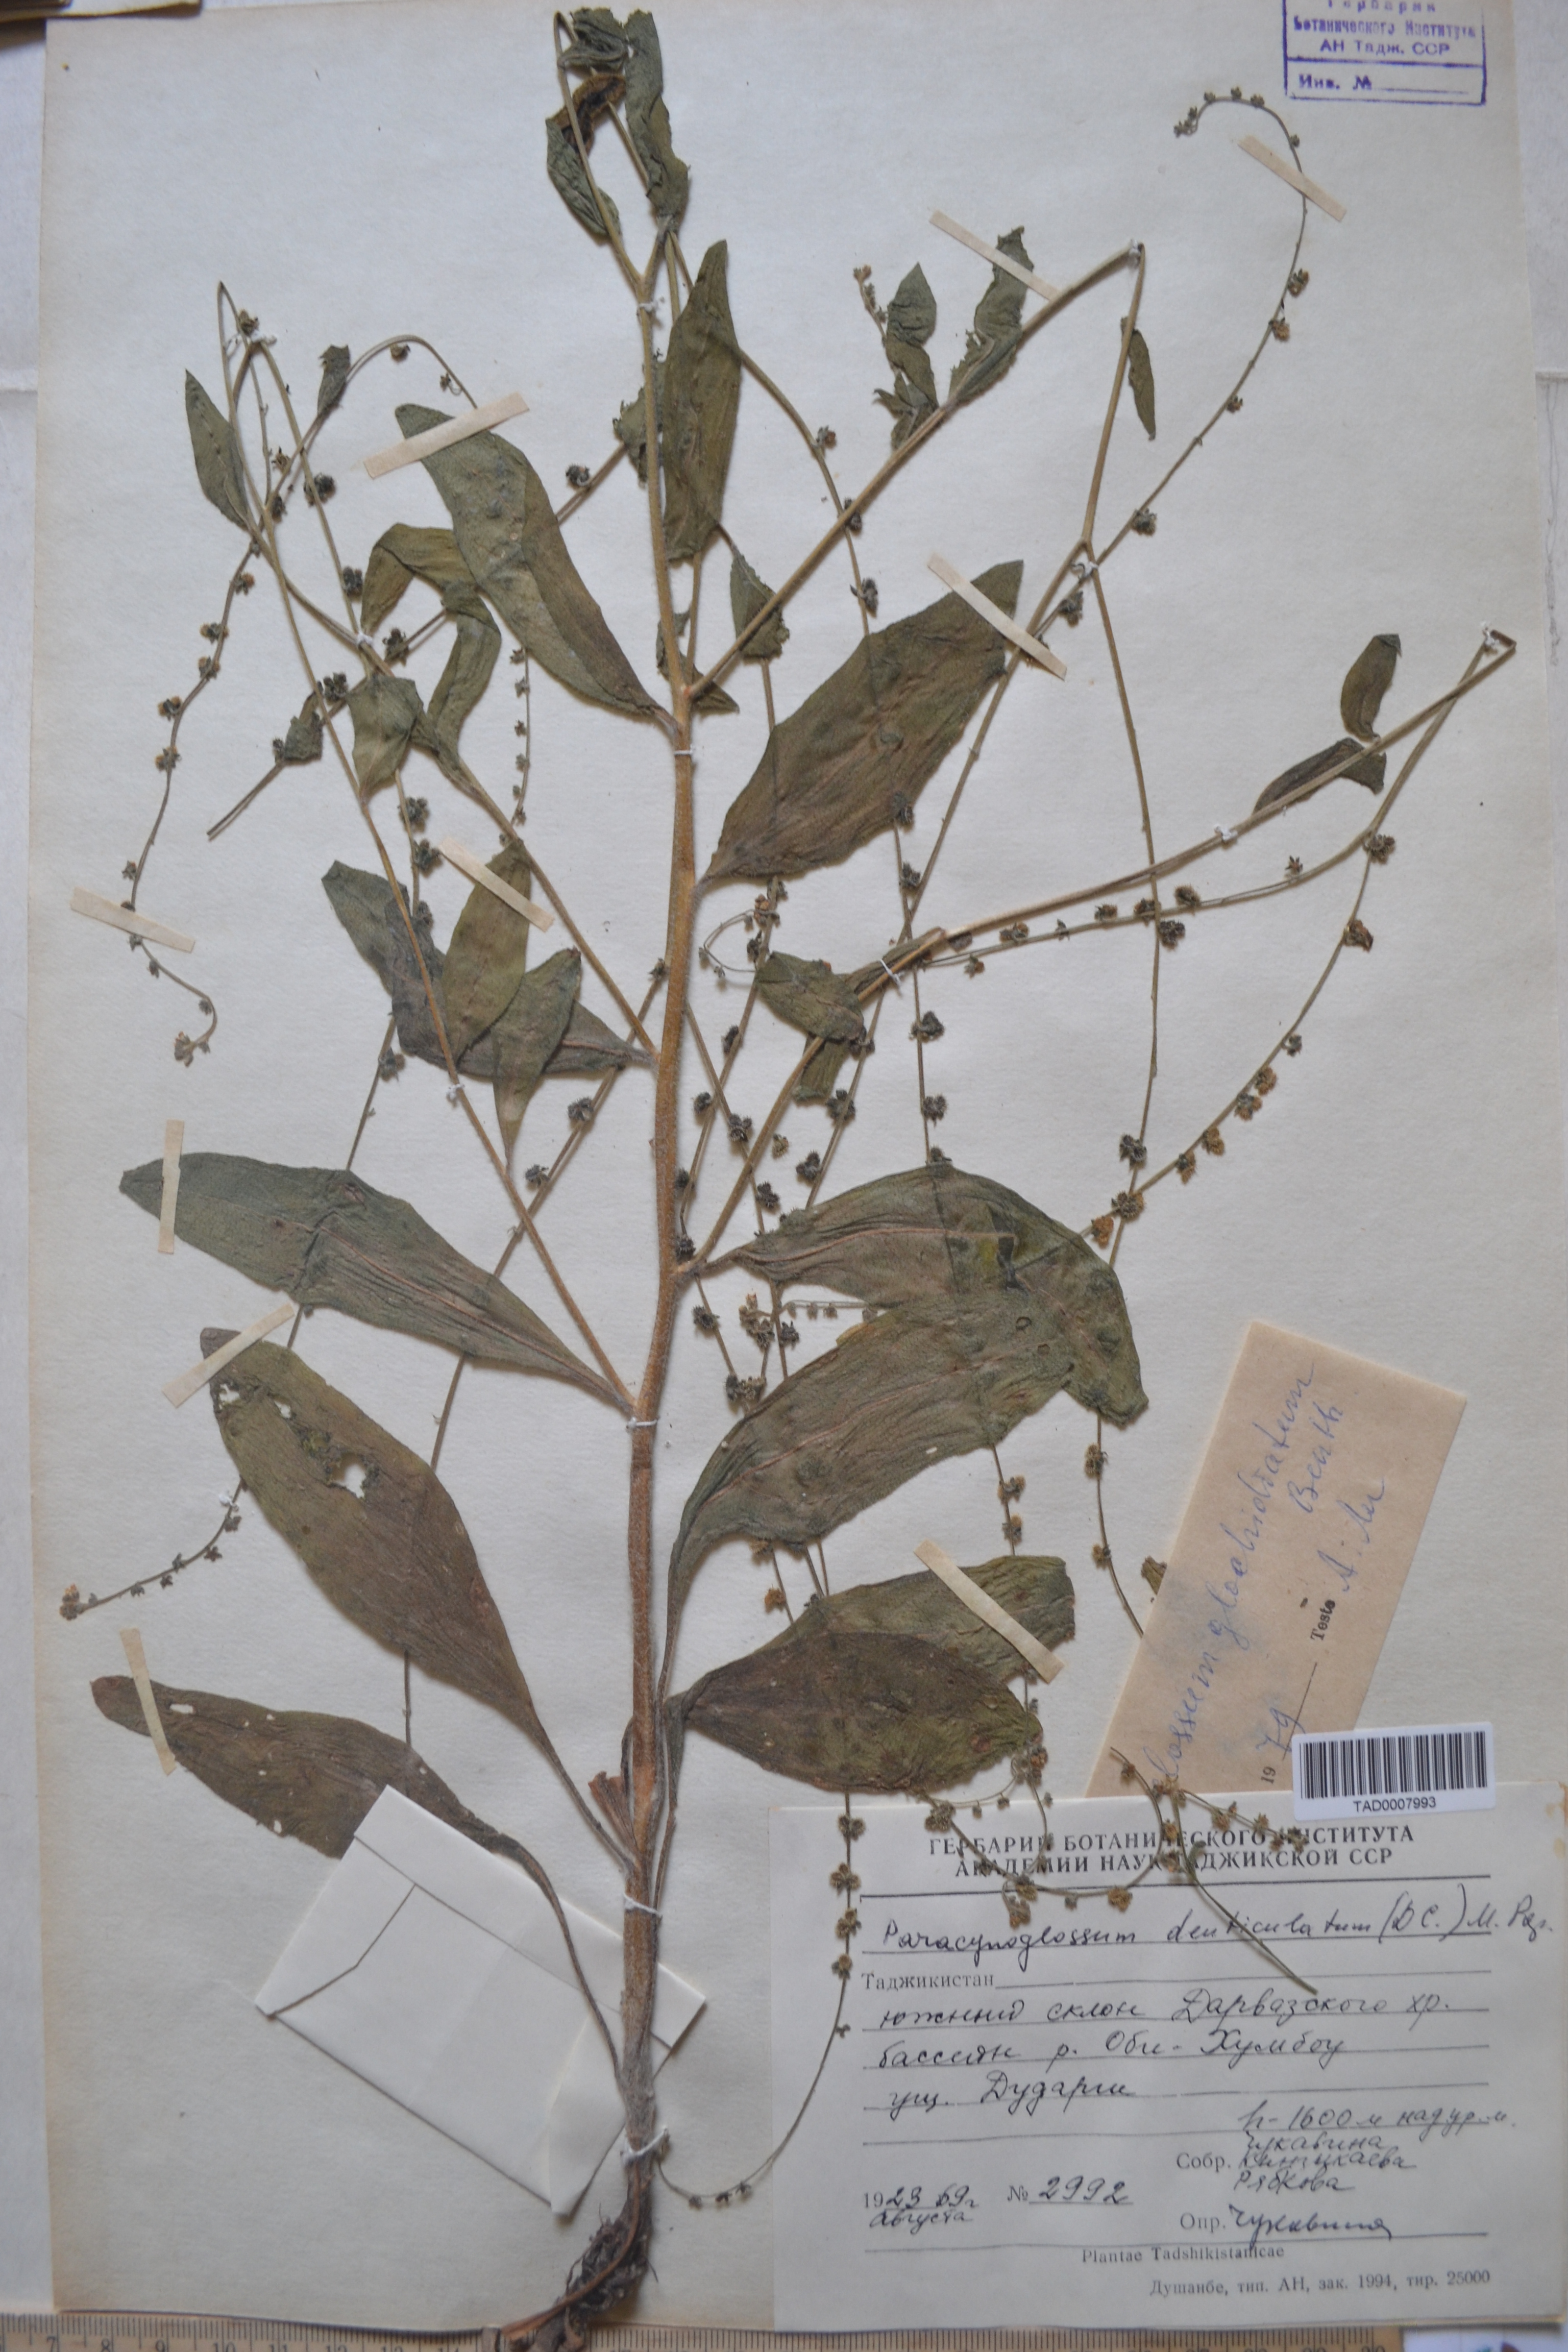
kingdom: Plantae
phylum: Tracheophyta
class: Magnoliopsida
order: Boraginales
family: Boraginaceae
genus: Paracynoglossum
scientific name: Paracynoglossum glochidiatum
